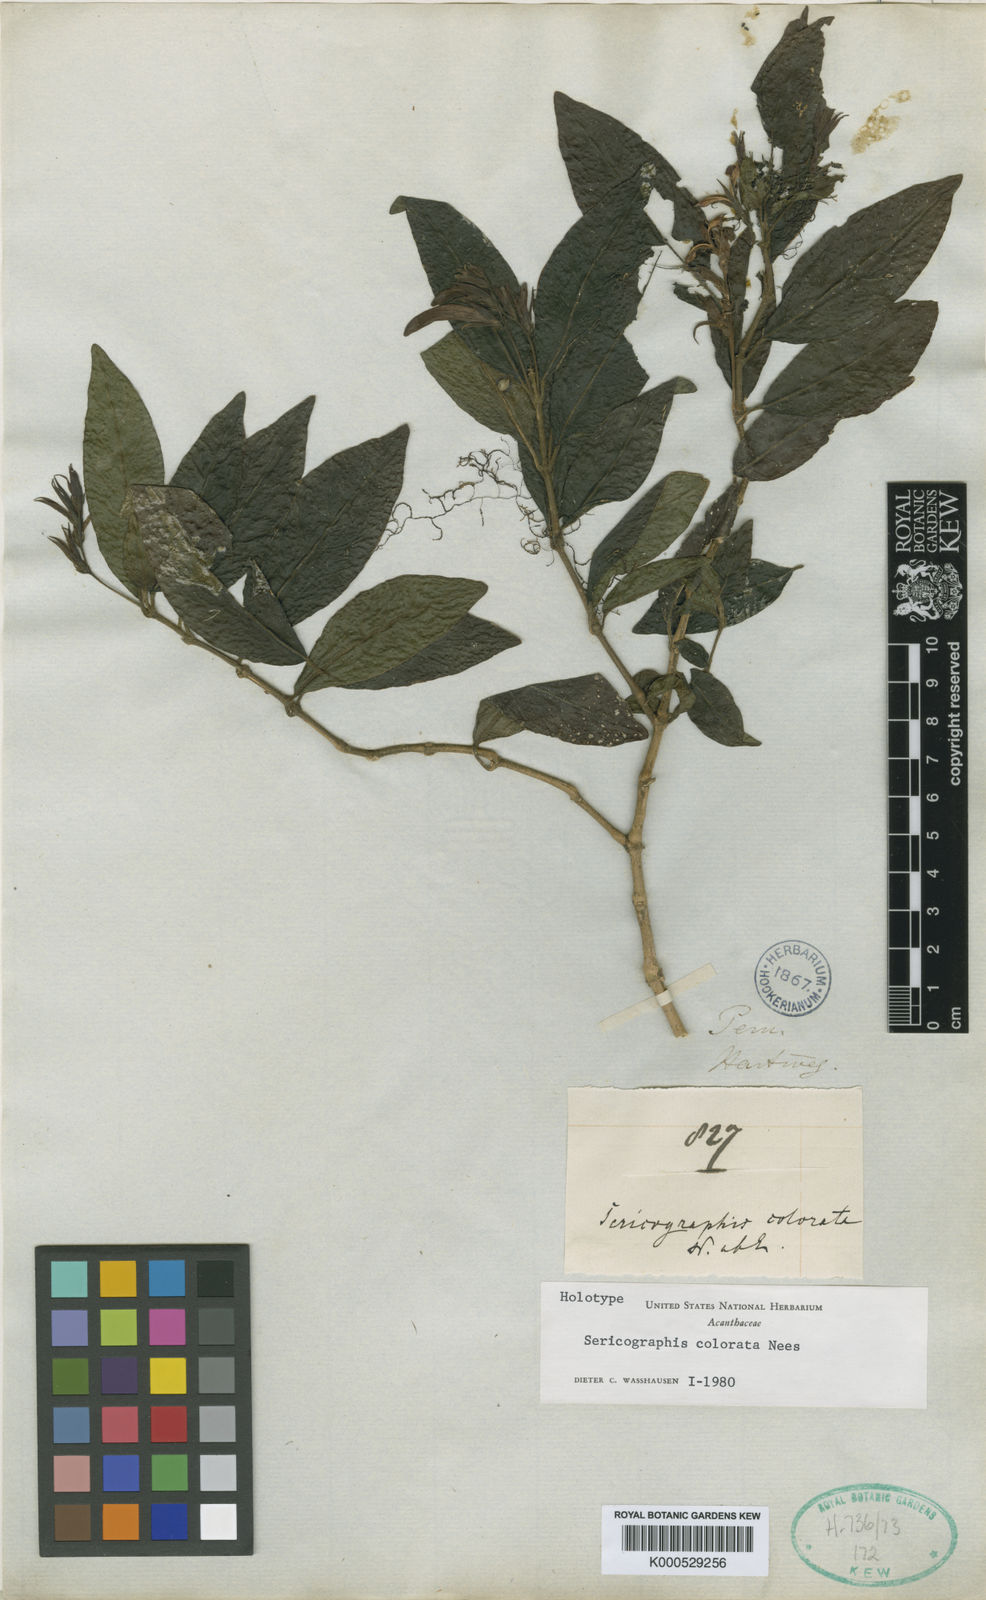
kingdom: Plantae
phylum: Tracheophyta
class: Magnoliopsida
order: Lamiales
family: Acanthaceae
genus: Justicia
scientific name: Justicia colorata
